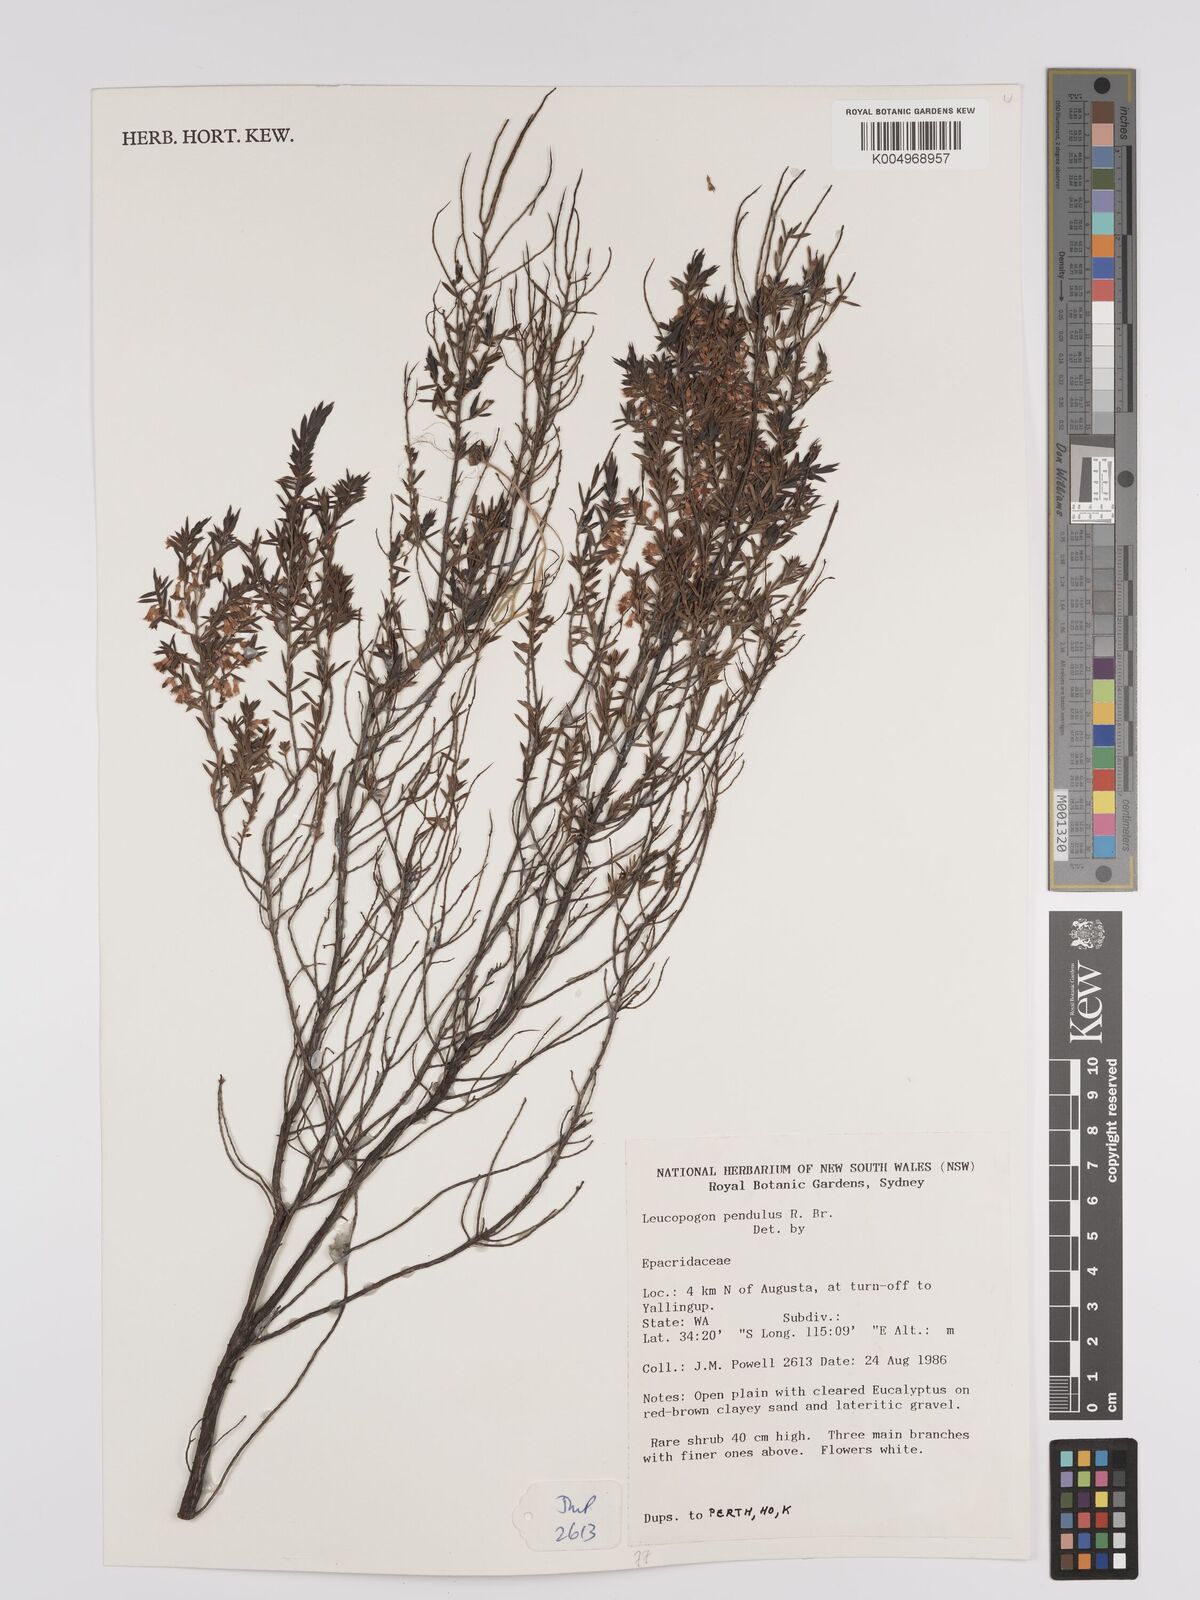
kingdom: Plantae
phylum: Tracheophyta
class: Magnoliopsida
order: Ericales
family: Ericaceae
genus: Styphelia
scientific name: Styphelia pendula
